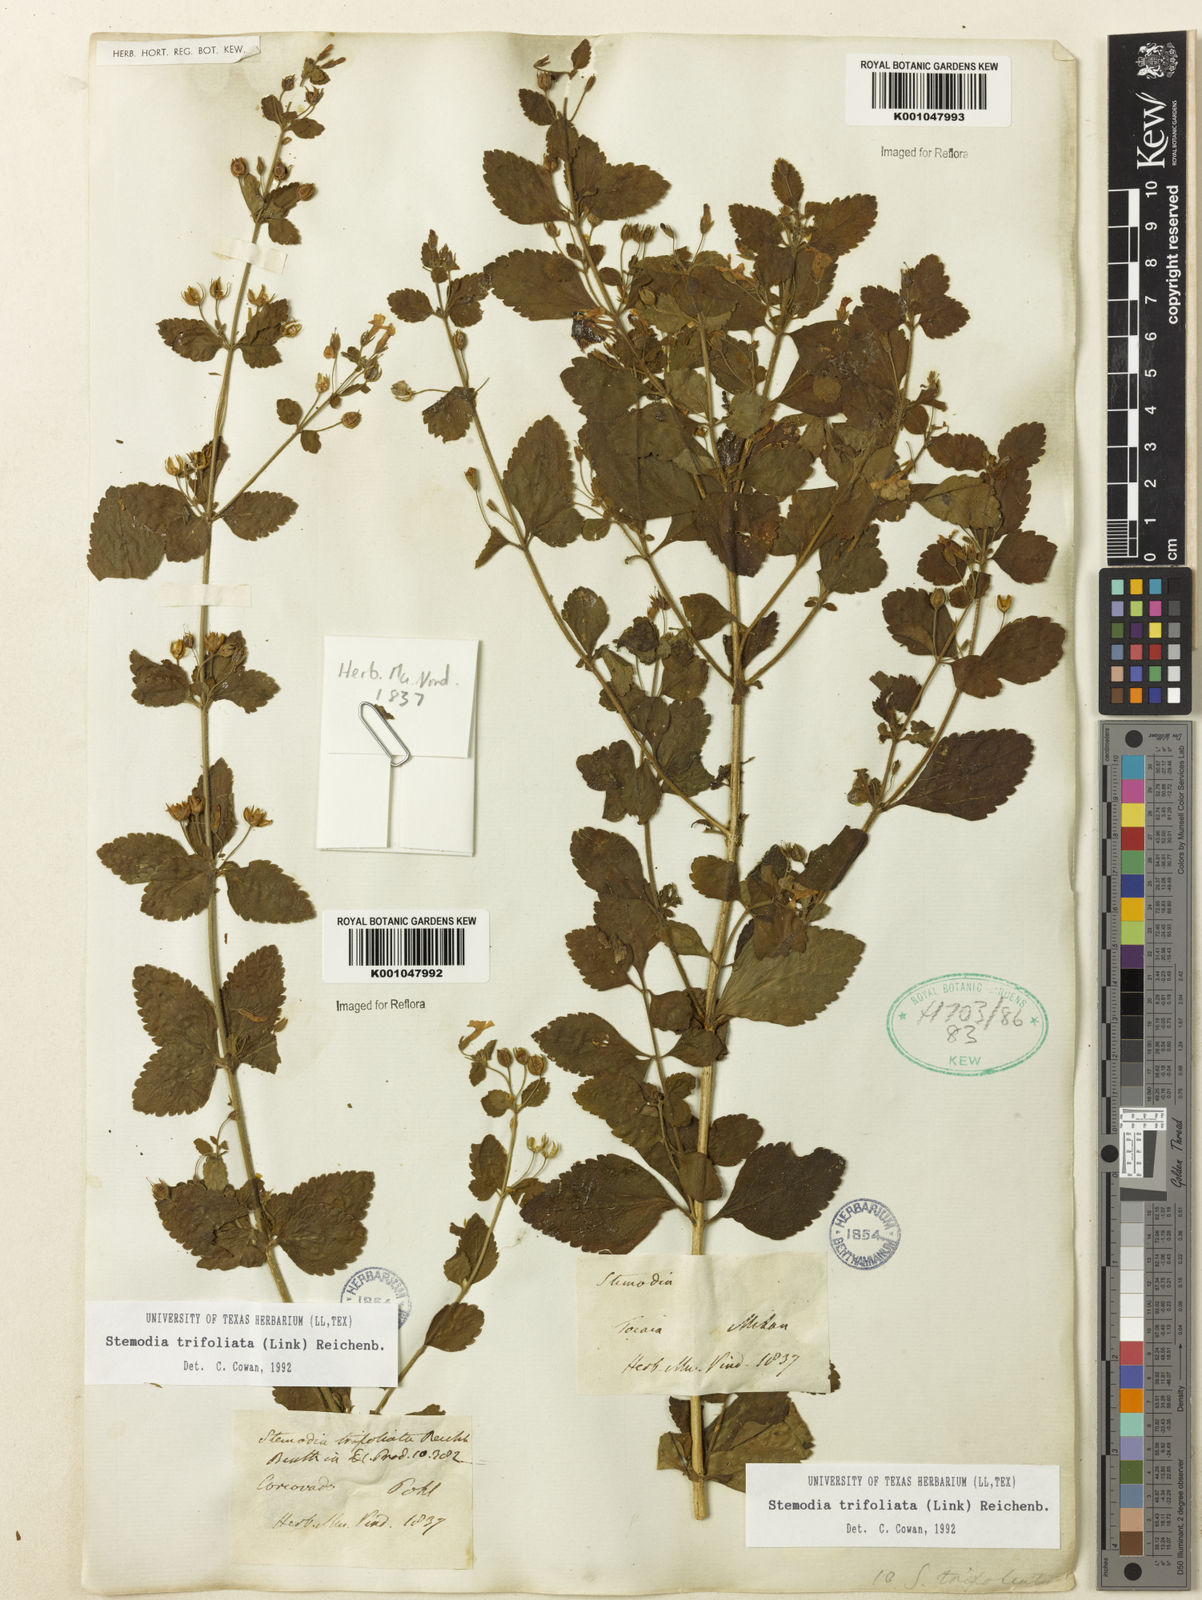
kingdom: Plantae
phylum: Tracheophyta
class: Magnoliopsida
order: Lamiales
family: Plantaginaceae
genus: Stemodia
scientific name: Stemodia trifoliata
